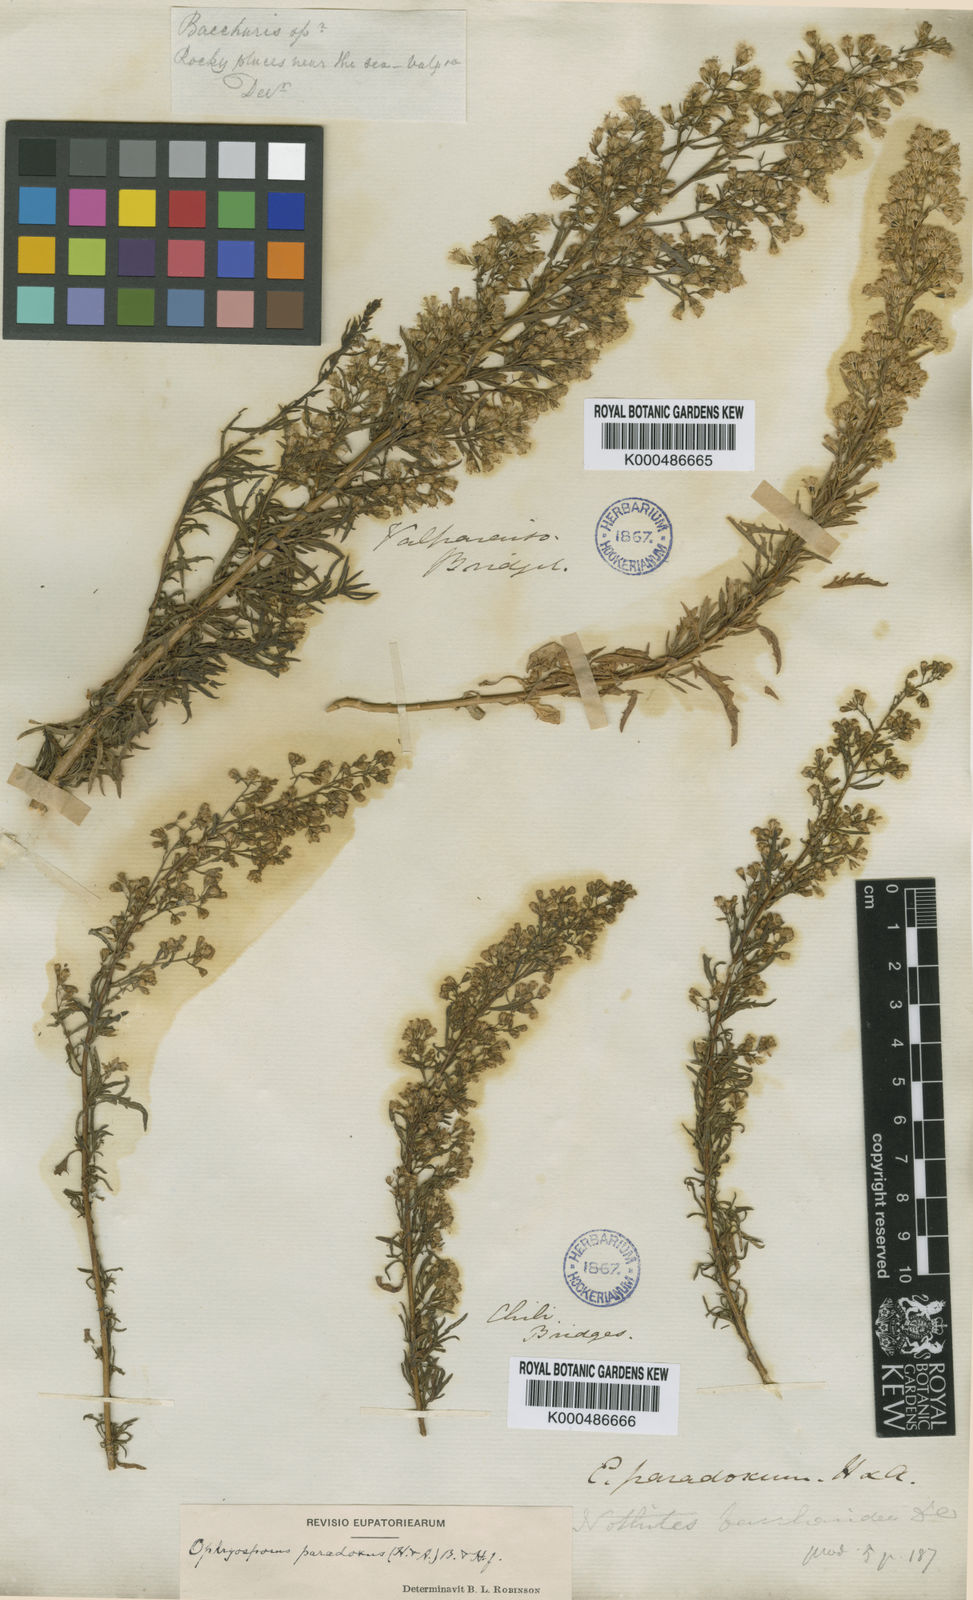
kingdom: Plantae
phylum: Tracheophyta
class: Magnoliopsida
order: Asterales
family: Asteraceae
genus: Ophryosporus
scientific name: Ophryosporus paradoxus
